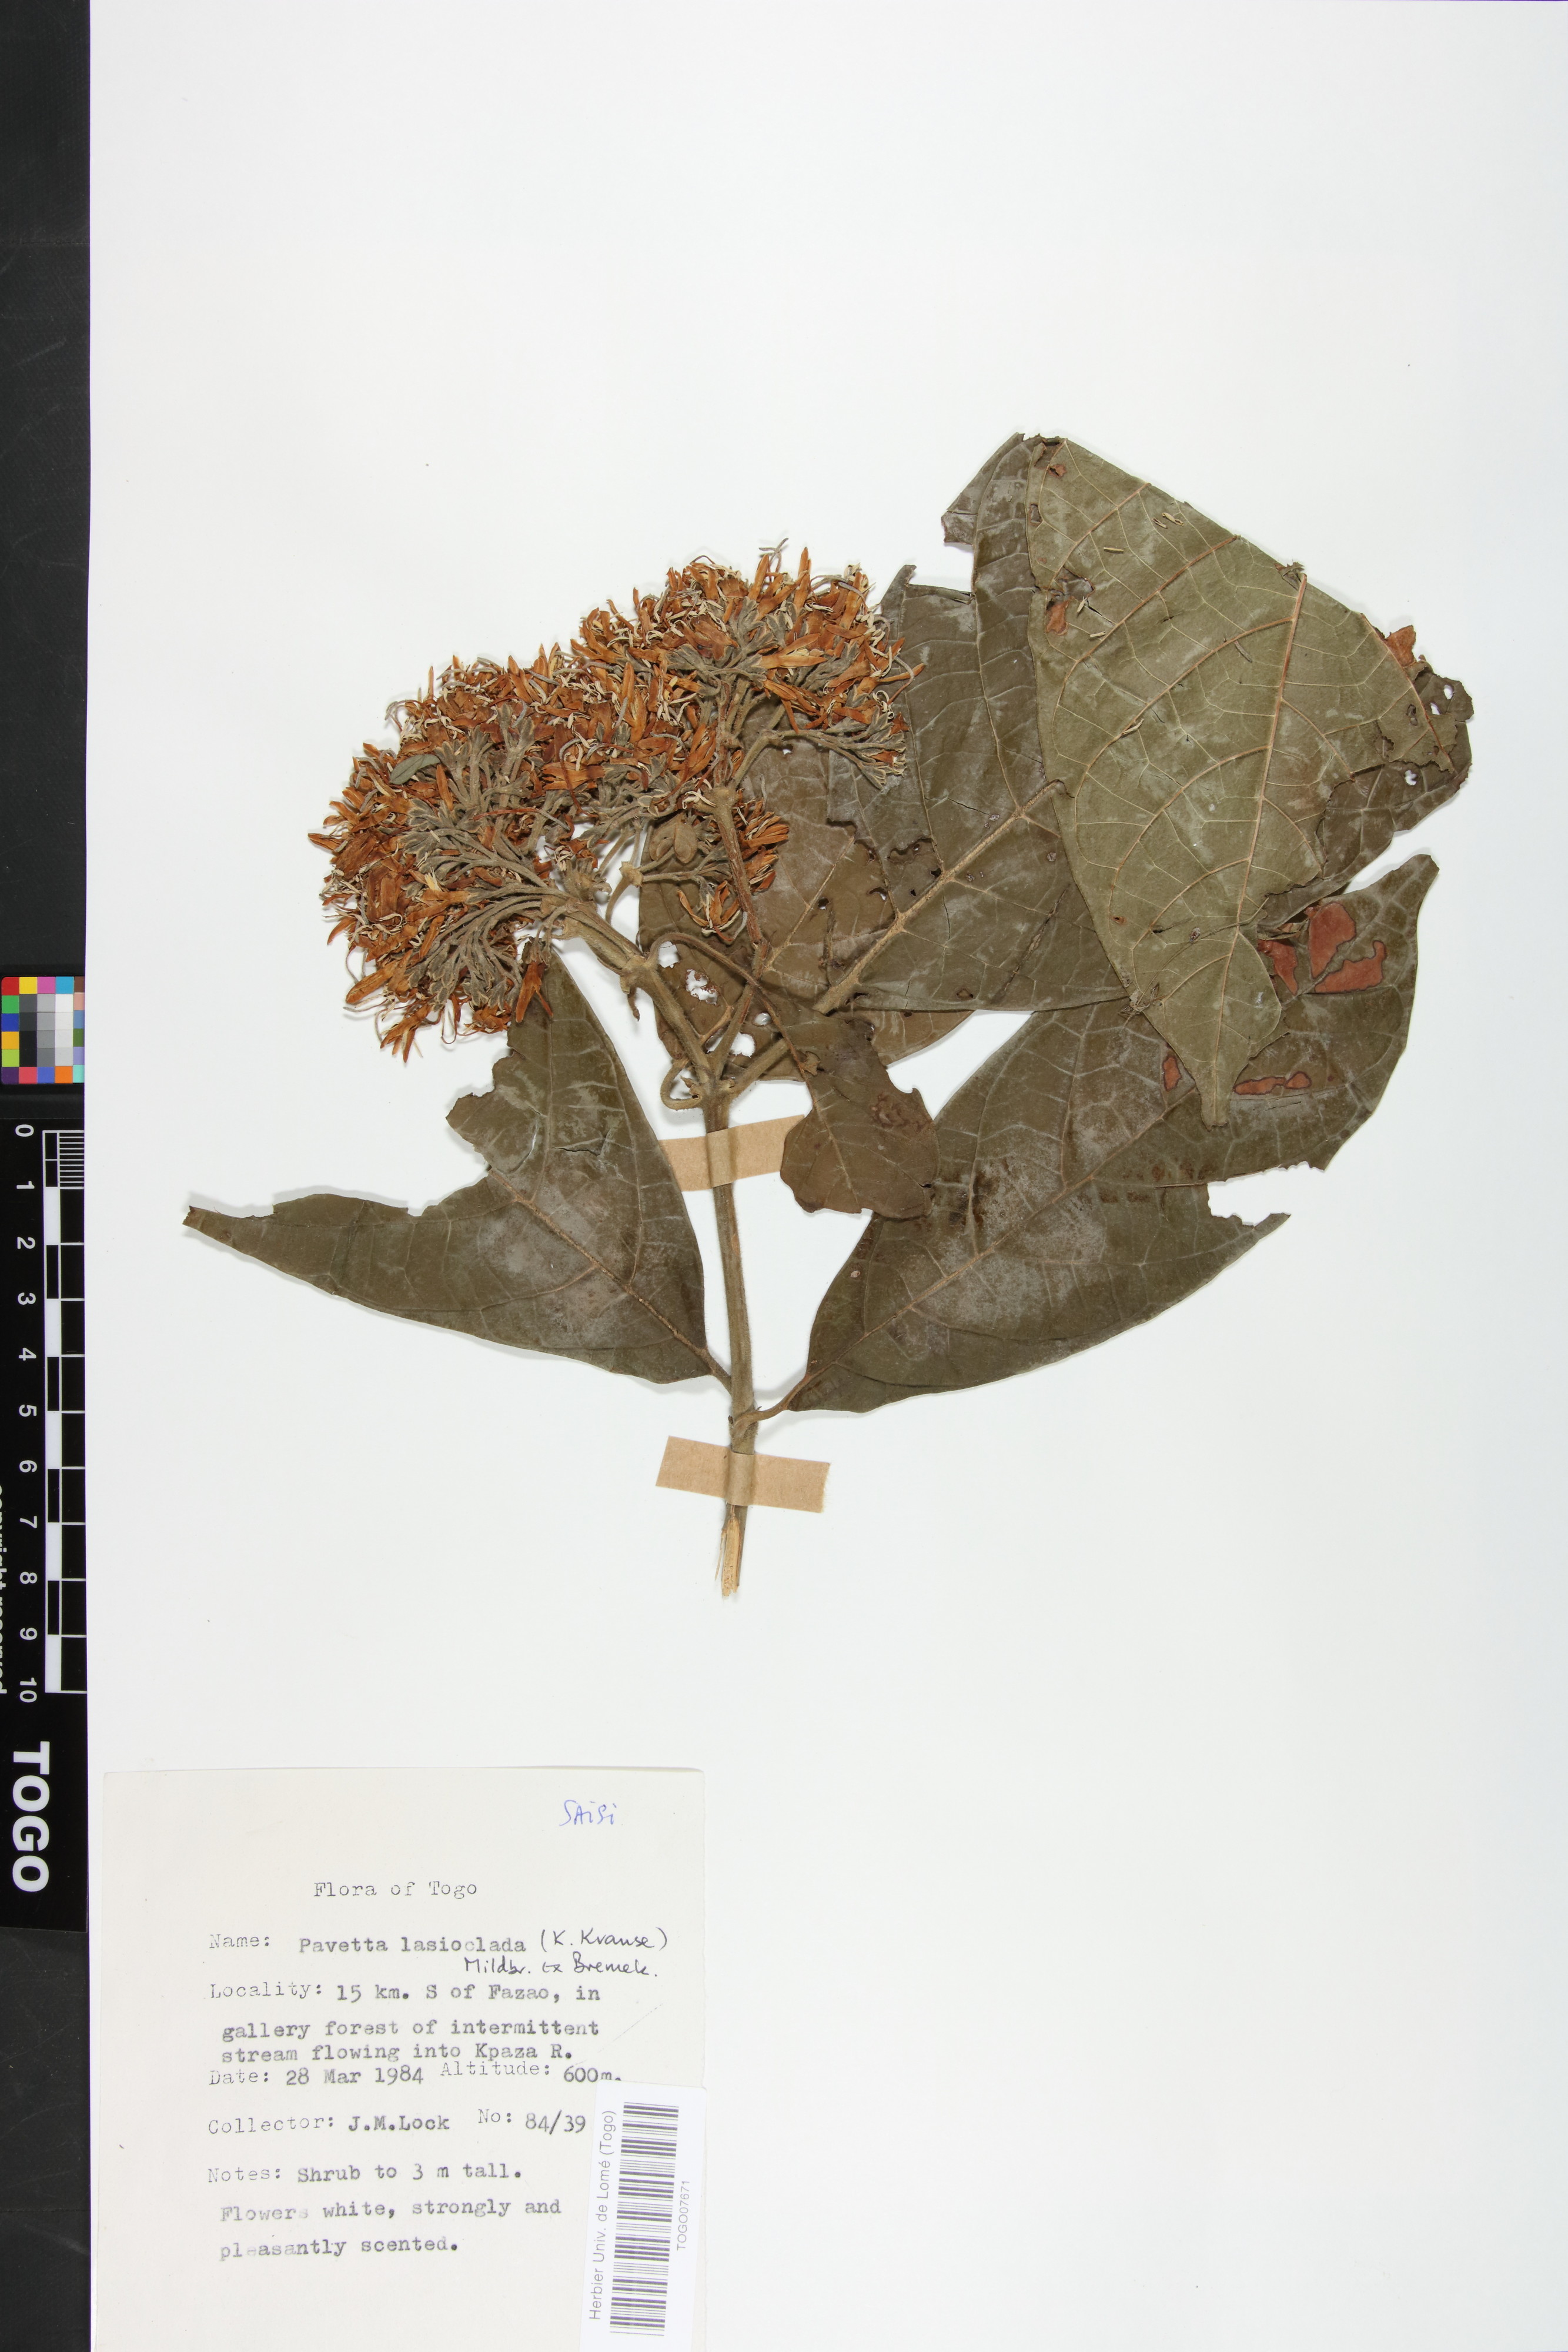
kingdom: Plantae
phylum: Tracheophyta
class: Magnoliopsida
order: Gentianales
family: Rubiaceae
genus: Pavetta
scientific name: Pavetta lasioclada
